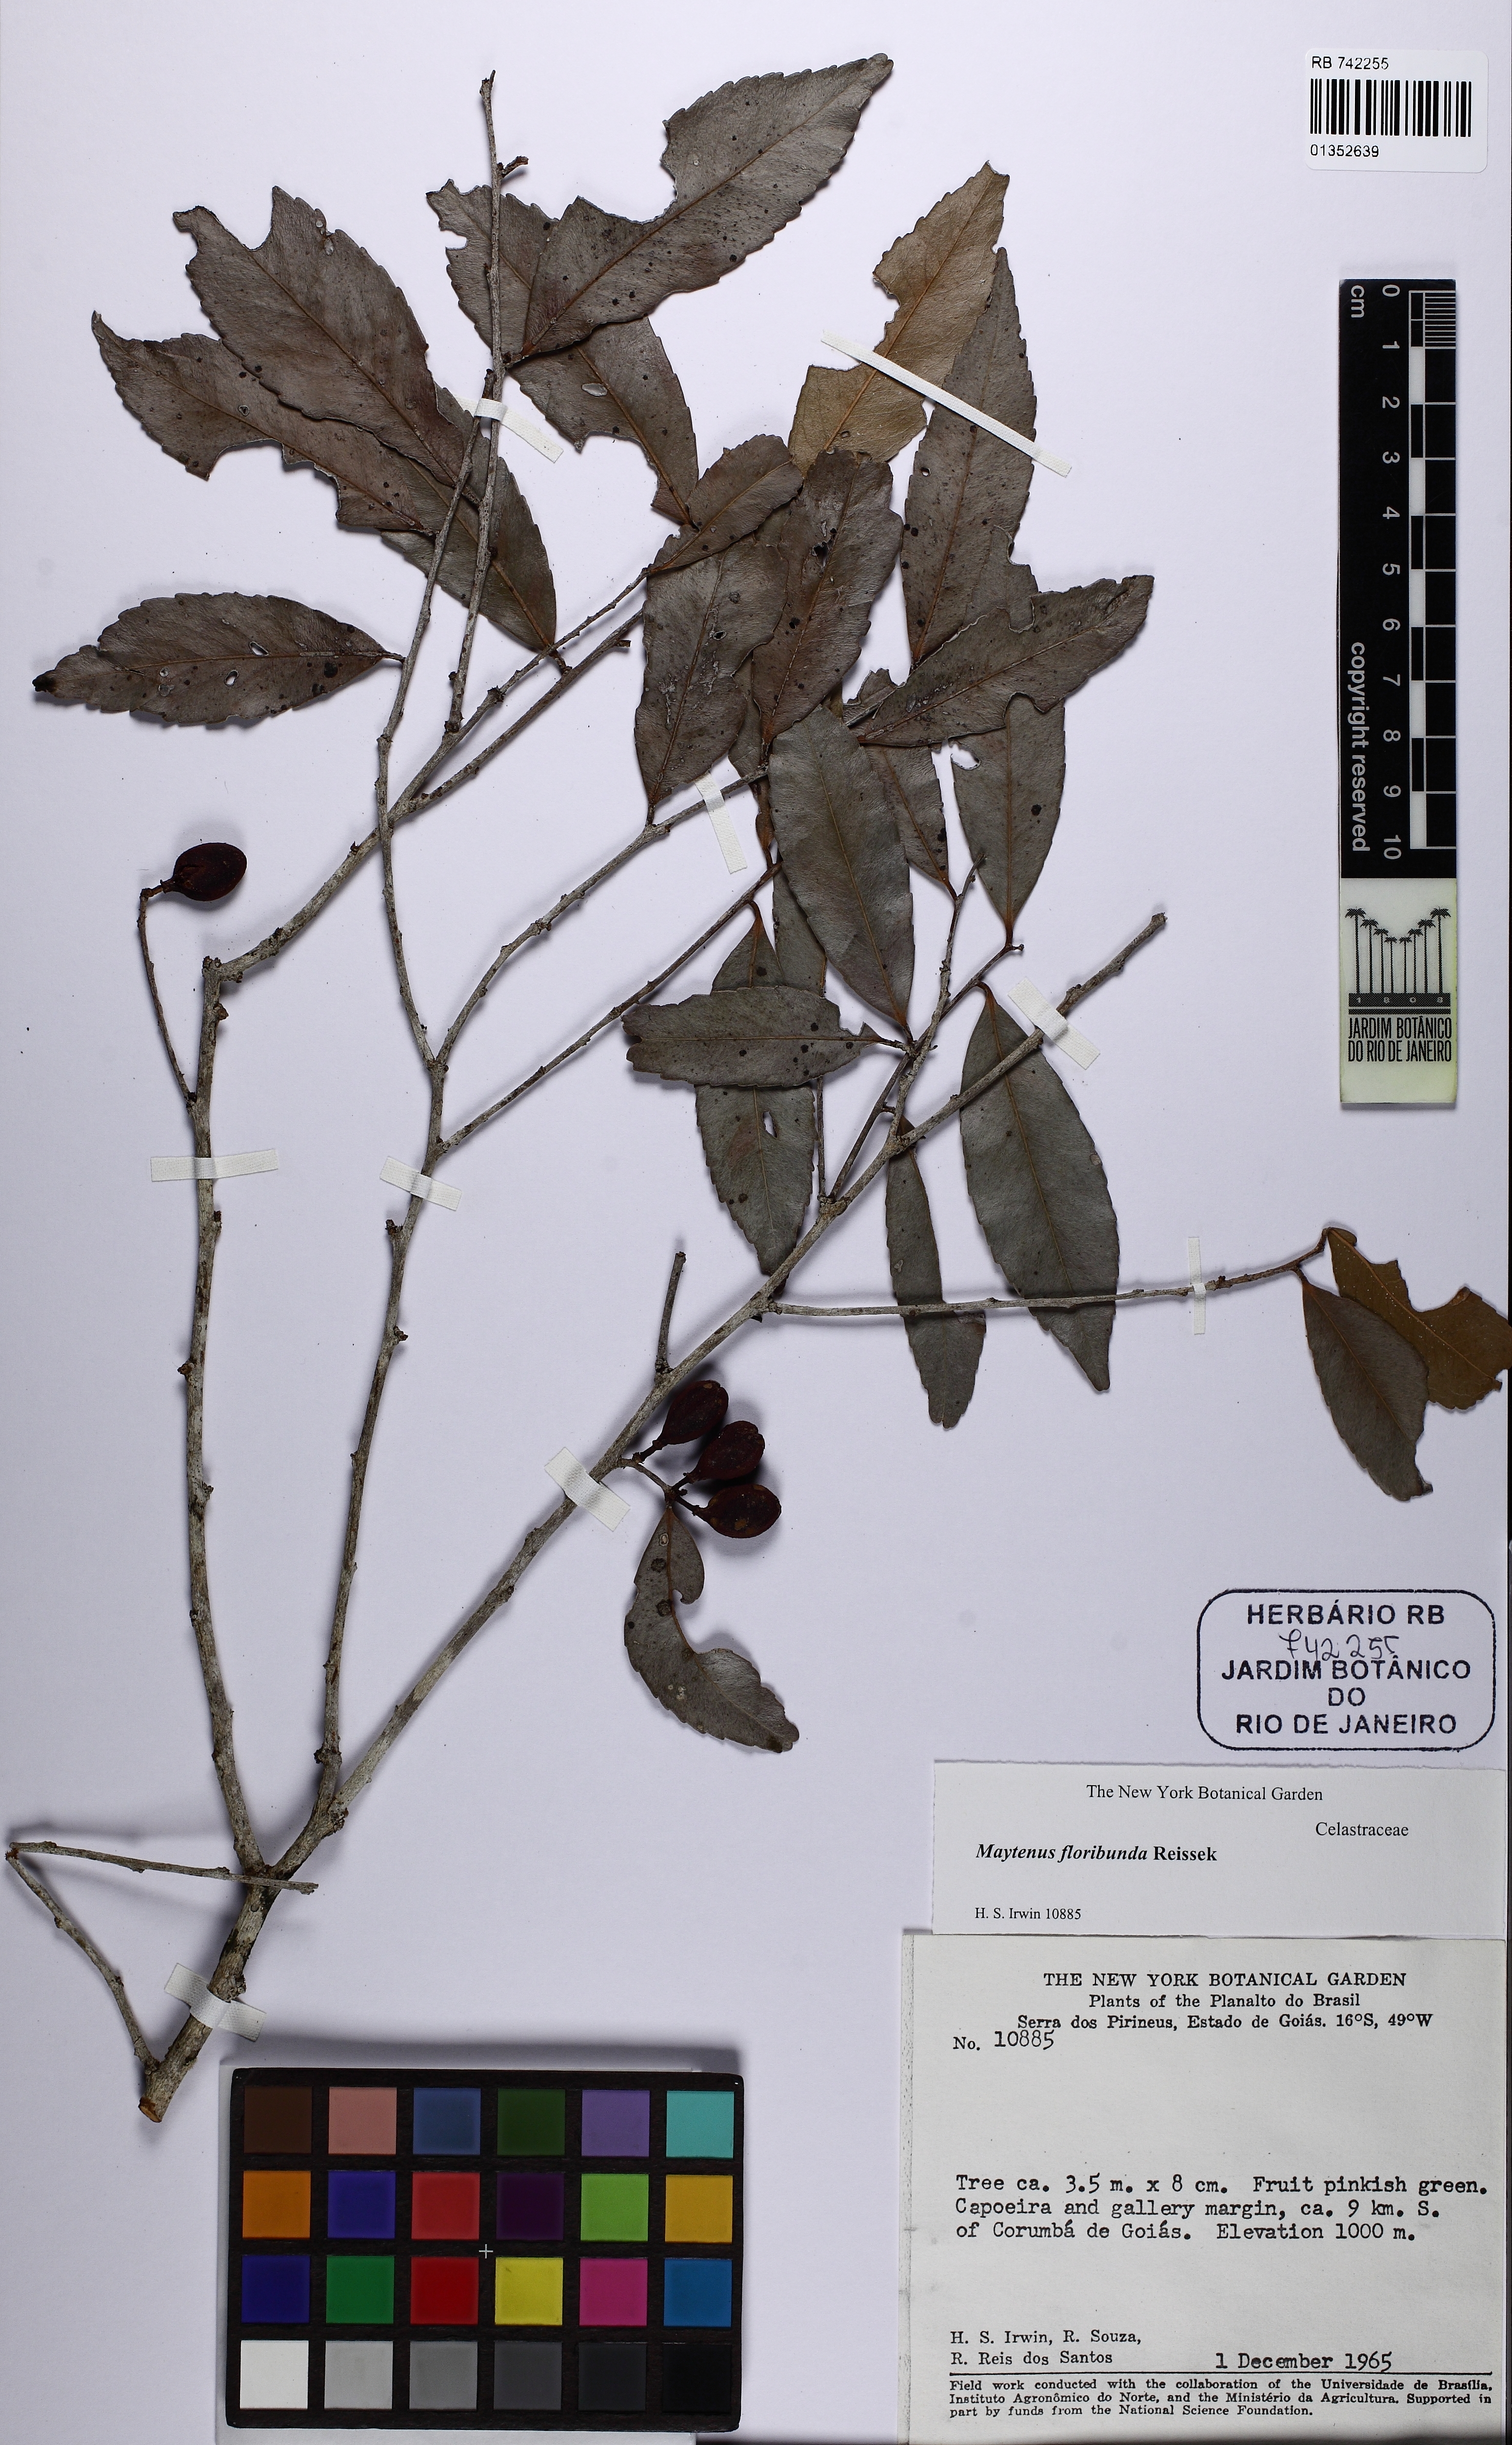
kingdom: Plantae
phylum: Tracheophyta
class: Magnoliopsida
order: Celastrales
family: Celastraceae
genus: Monteverdia
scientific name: Monteverdia floribunda
